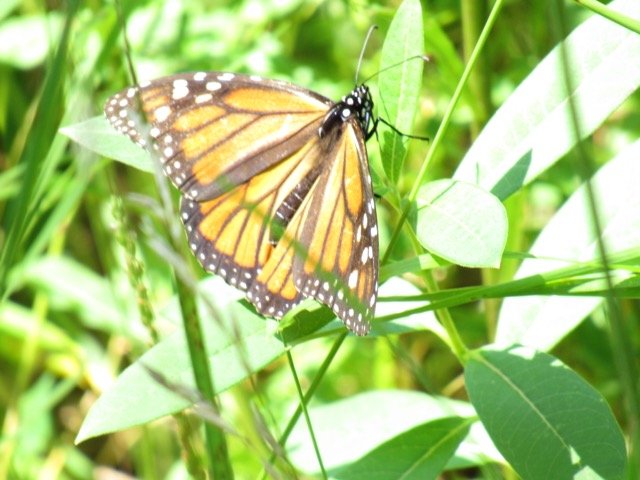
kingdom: Animalia
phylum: Arthropoda
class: Insecta
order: Lepidoptera
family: Nymphalidae
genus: Danaus
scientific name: Danaus plexippus
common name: Monarch
